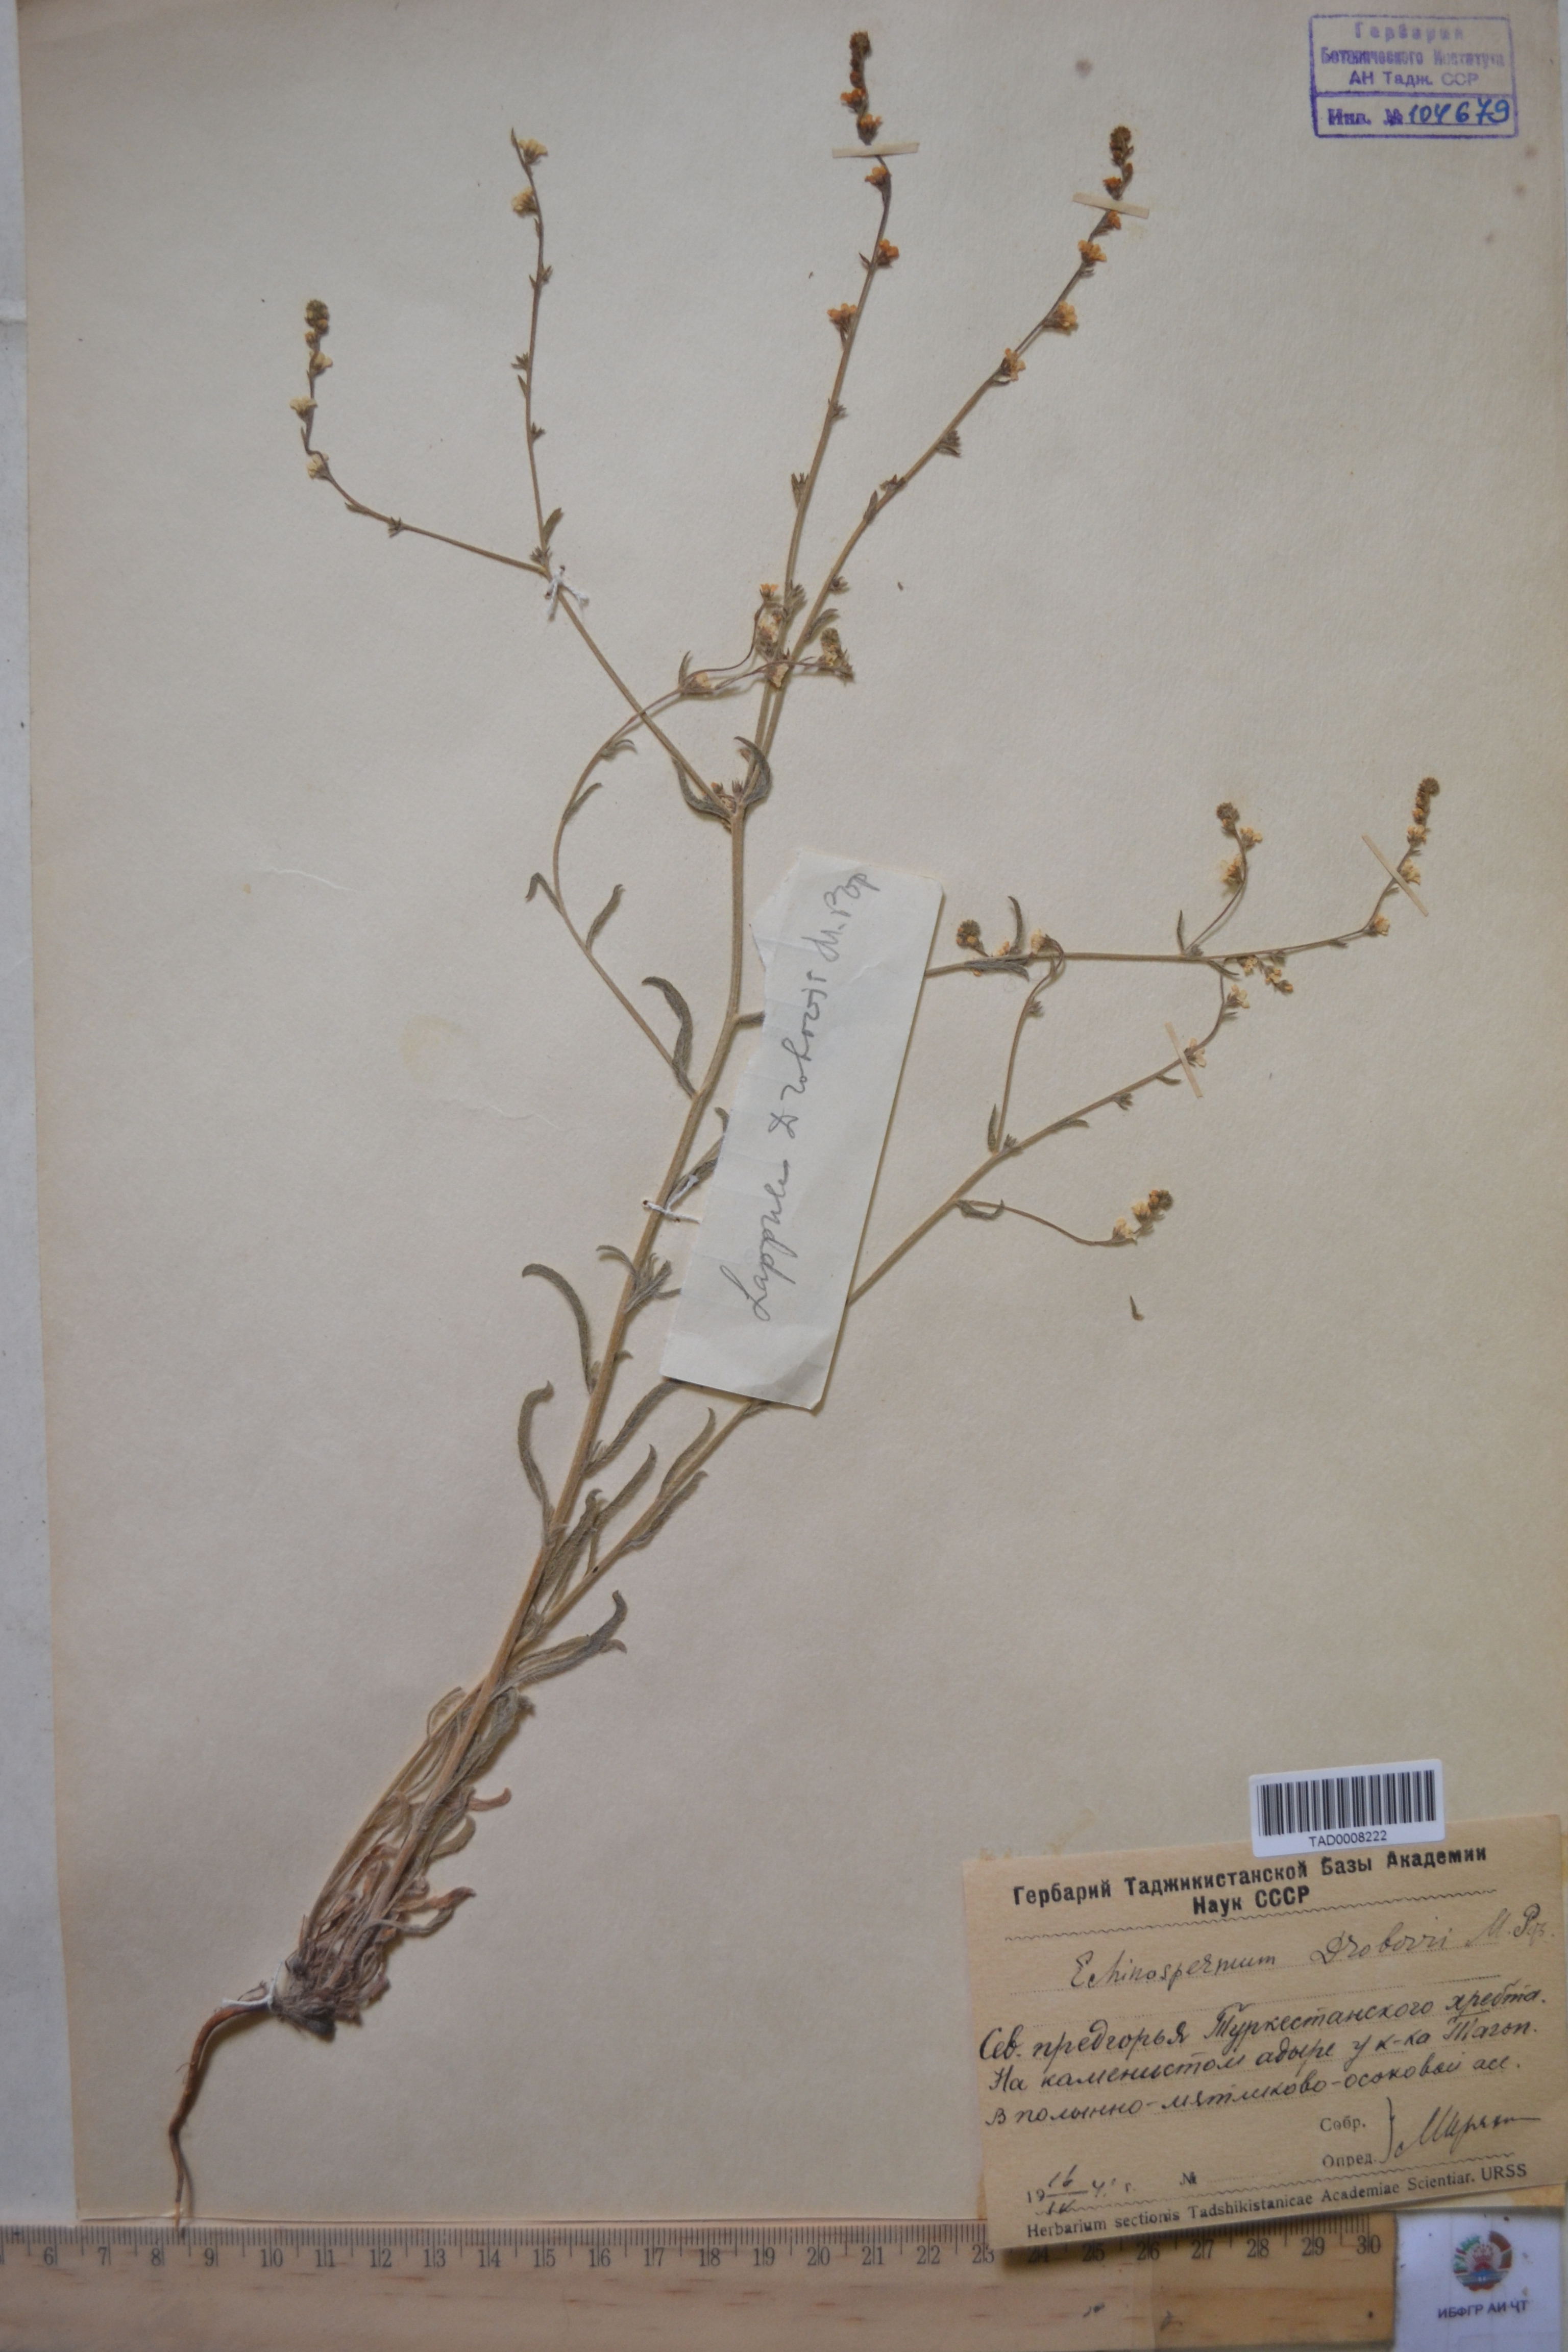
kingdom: Plantae
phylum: Tracheophyta
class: Magnoliopsida
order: Boraginales
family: Boraginaceae
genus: Rochelia
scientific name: Rochelia drobovii
